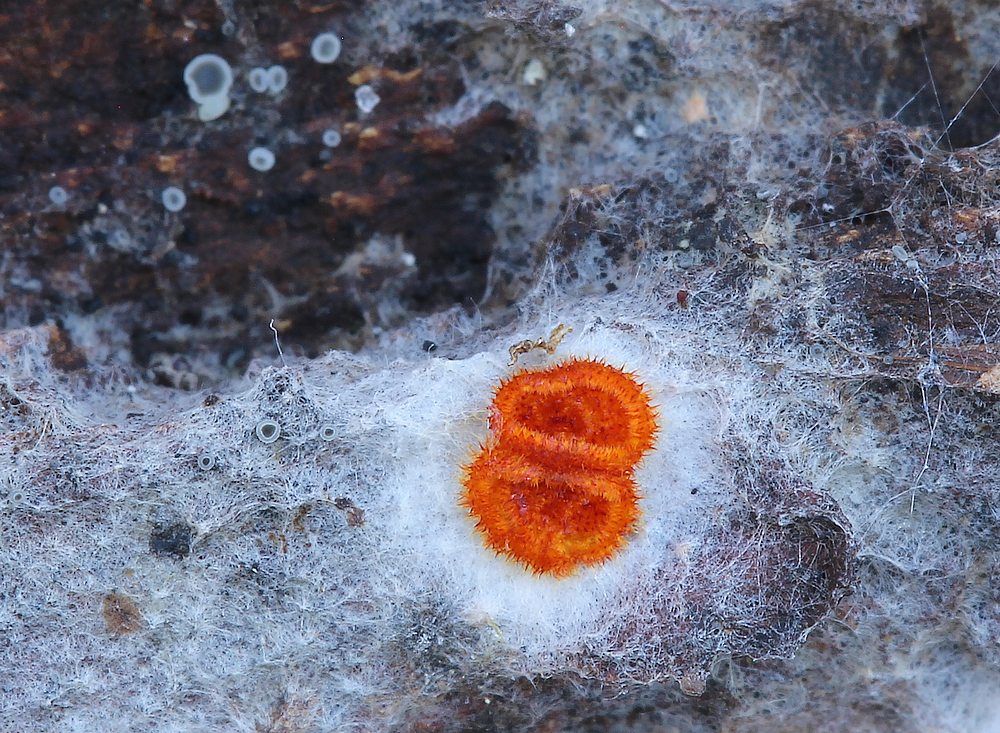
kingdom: Fungi
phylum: Ascomycota
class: Leotiomycetes
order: Helotiales
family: Arachnopezizaceae
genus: Arachnopeziza
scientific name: Arachnopeziza aurelia
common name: flamme-spindskive
